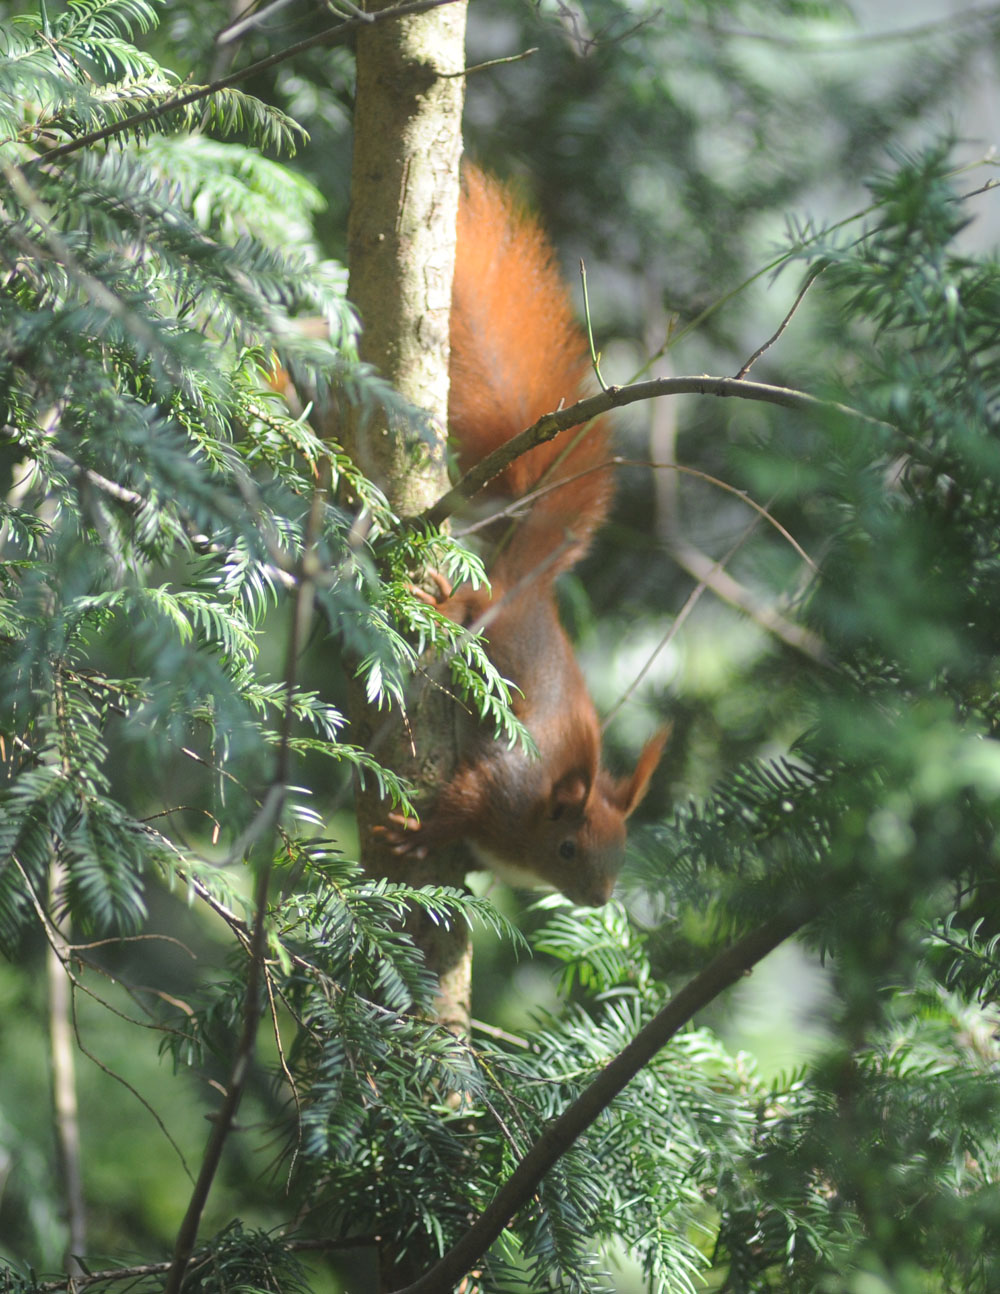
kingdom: Animalia
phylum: Chordata
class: Mammalia
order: Rodentia
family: Sciuridae
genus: Sciurus
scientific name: Sciurus vulgaris
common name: Eurasian red squirrel
